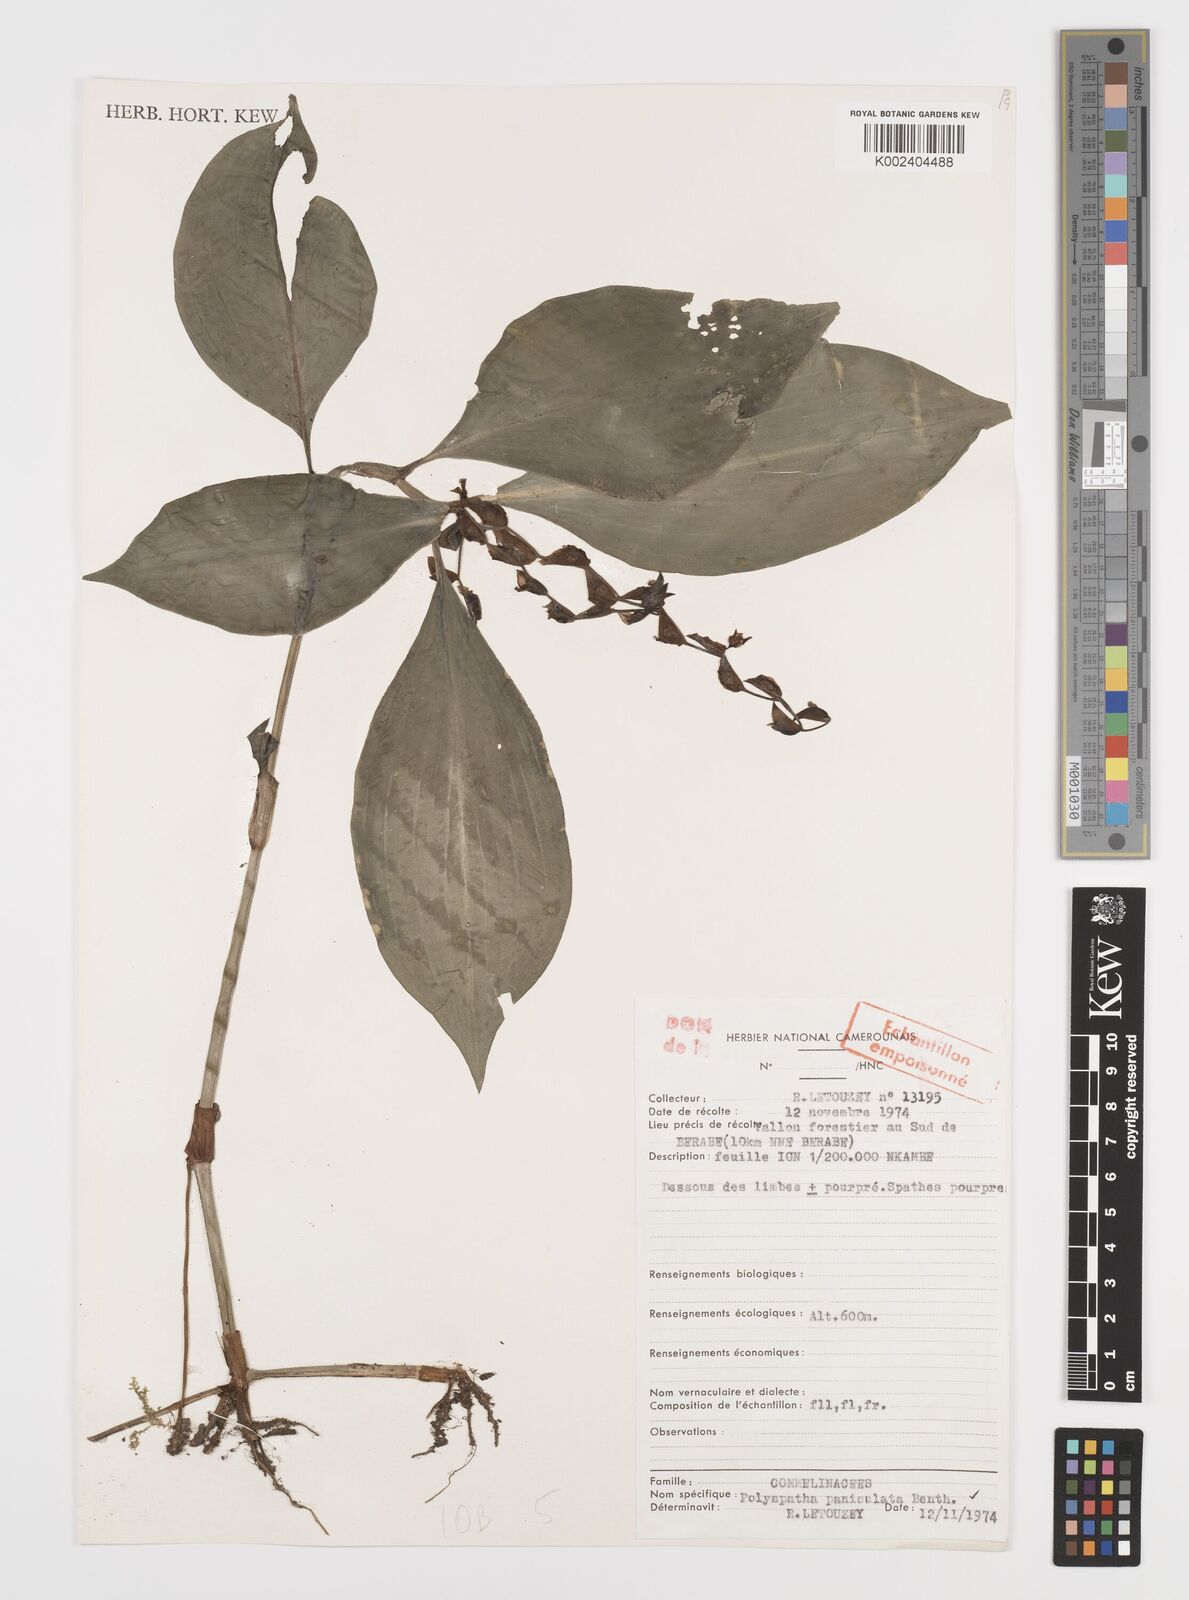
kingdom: Plantae
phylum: Tracheophyta
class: Liliopsida
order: Commelinales
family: Commelinaceae
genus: Polyspatha
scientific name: Polyspatha paniculata
